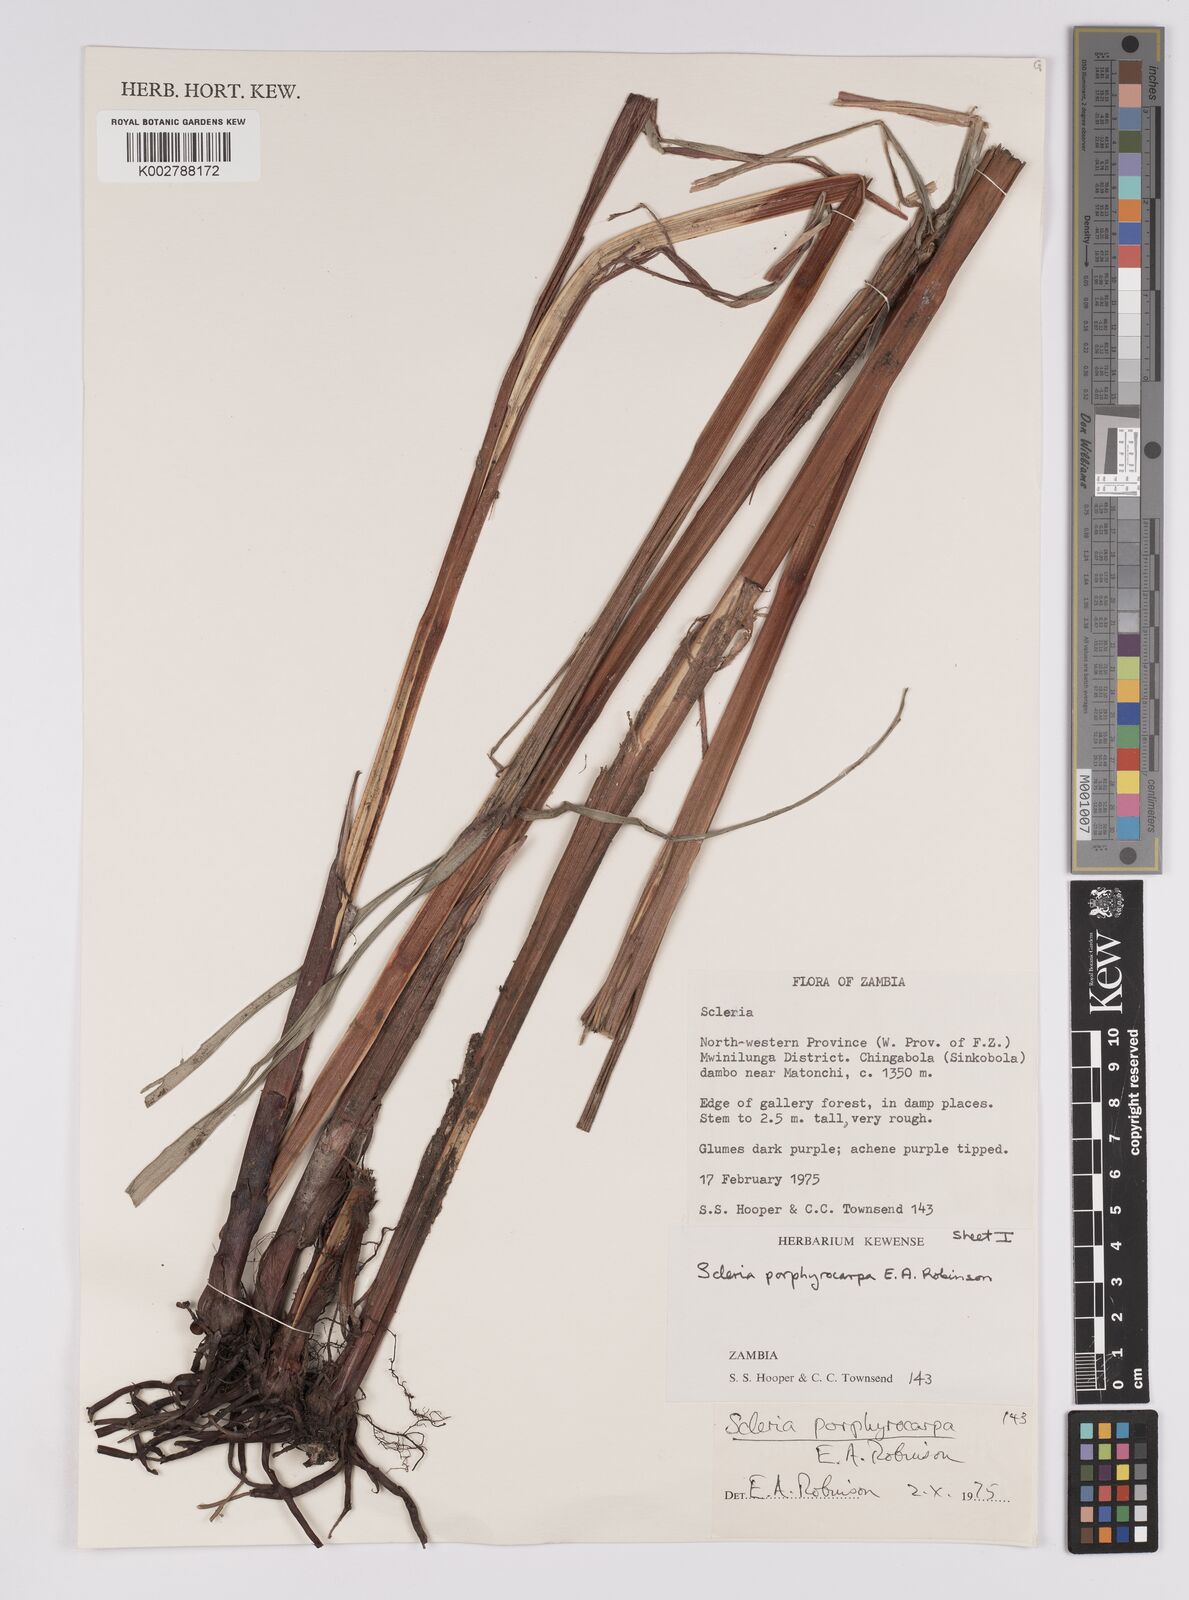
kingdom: Plantae
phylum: Tracheophyta
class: Liliopsida
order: Poales
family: Cyperaceae
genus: Scleria
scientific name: Scleria porphyrocarpa
